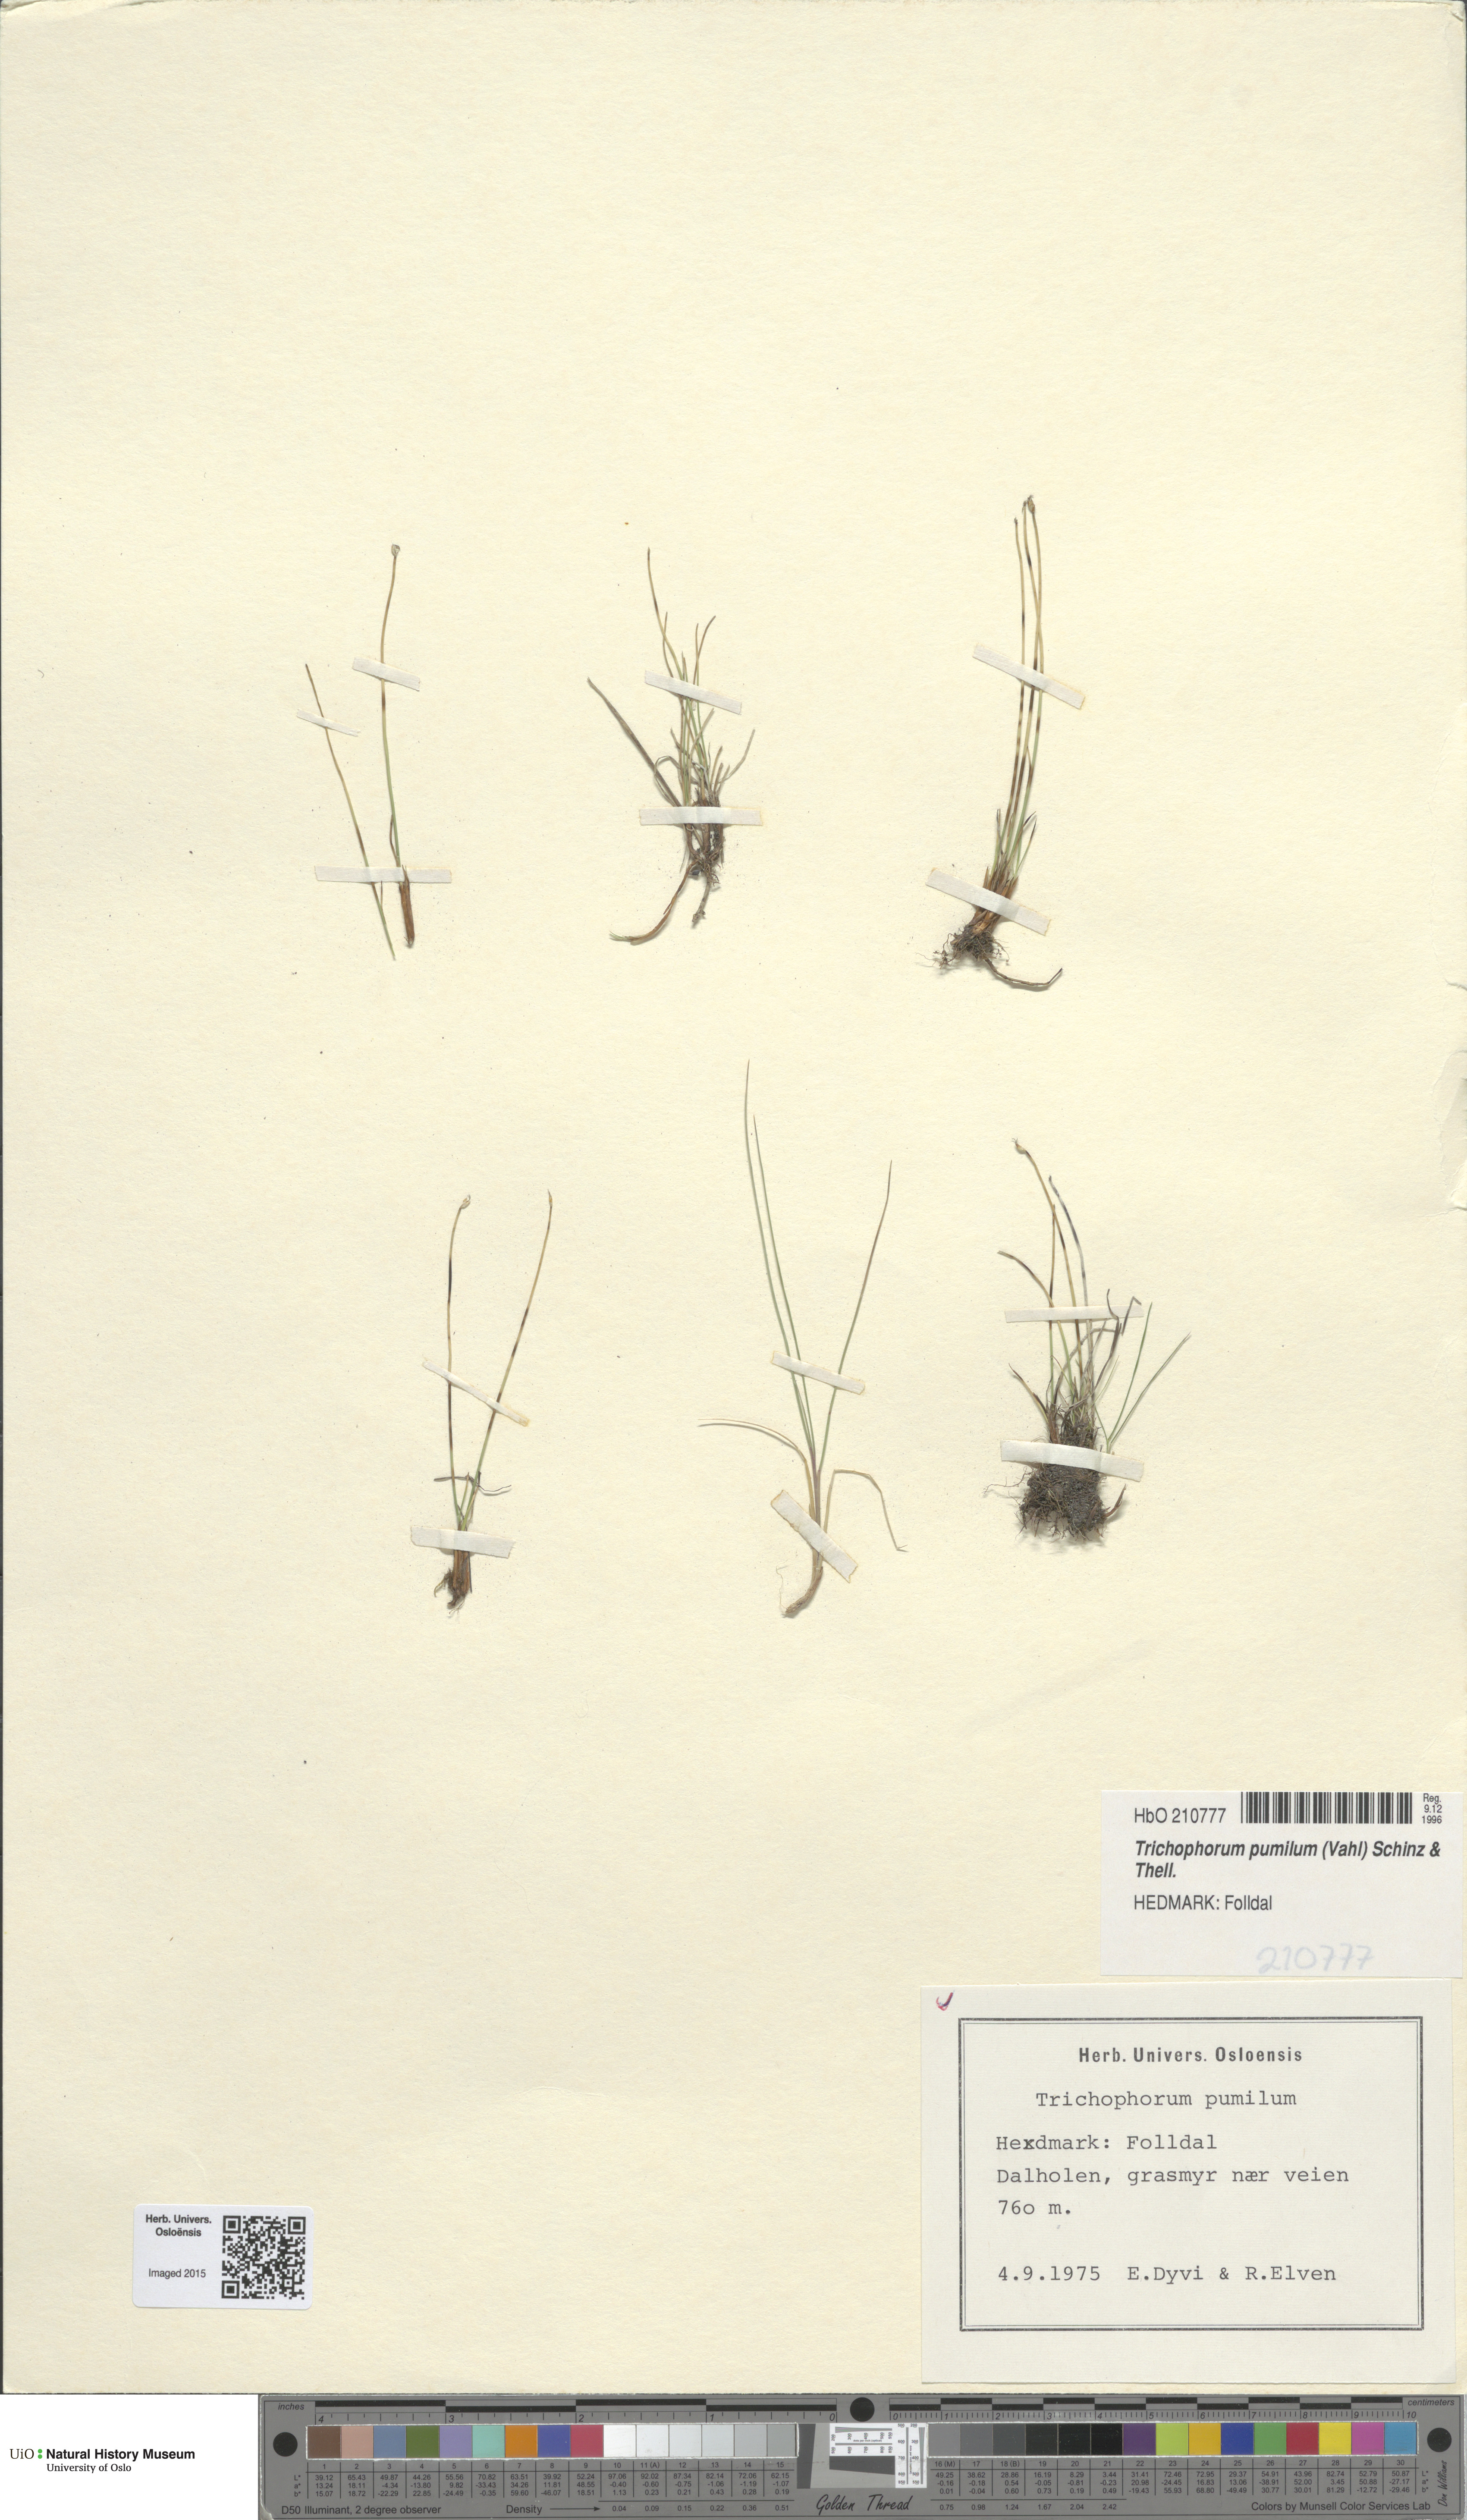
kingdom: Plantae
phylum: Tracheophyta
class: Liliopsida
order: Poales
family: Cyperaceae
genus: Trichophorum
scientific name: Trichophorum pumilum
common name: Rolland's bulrush
